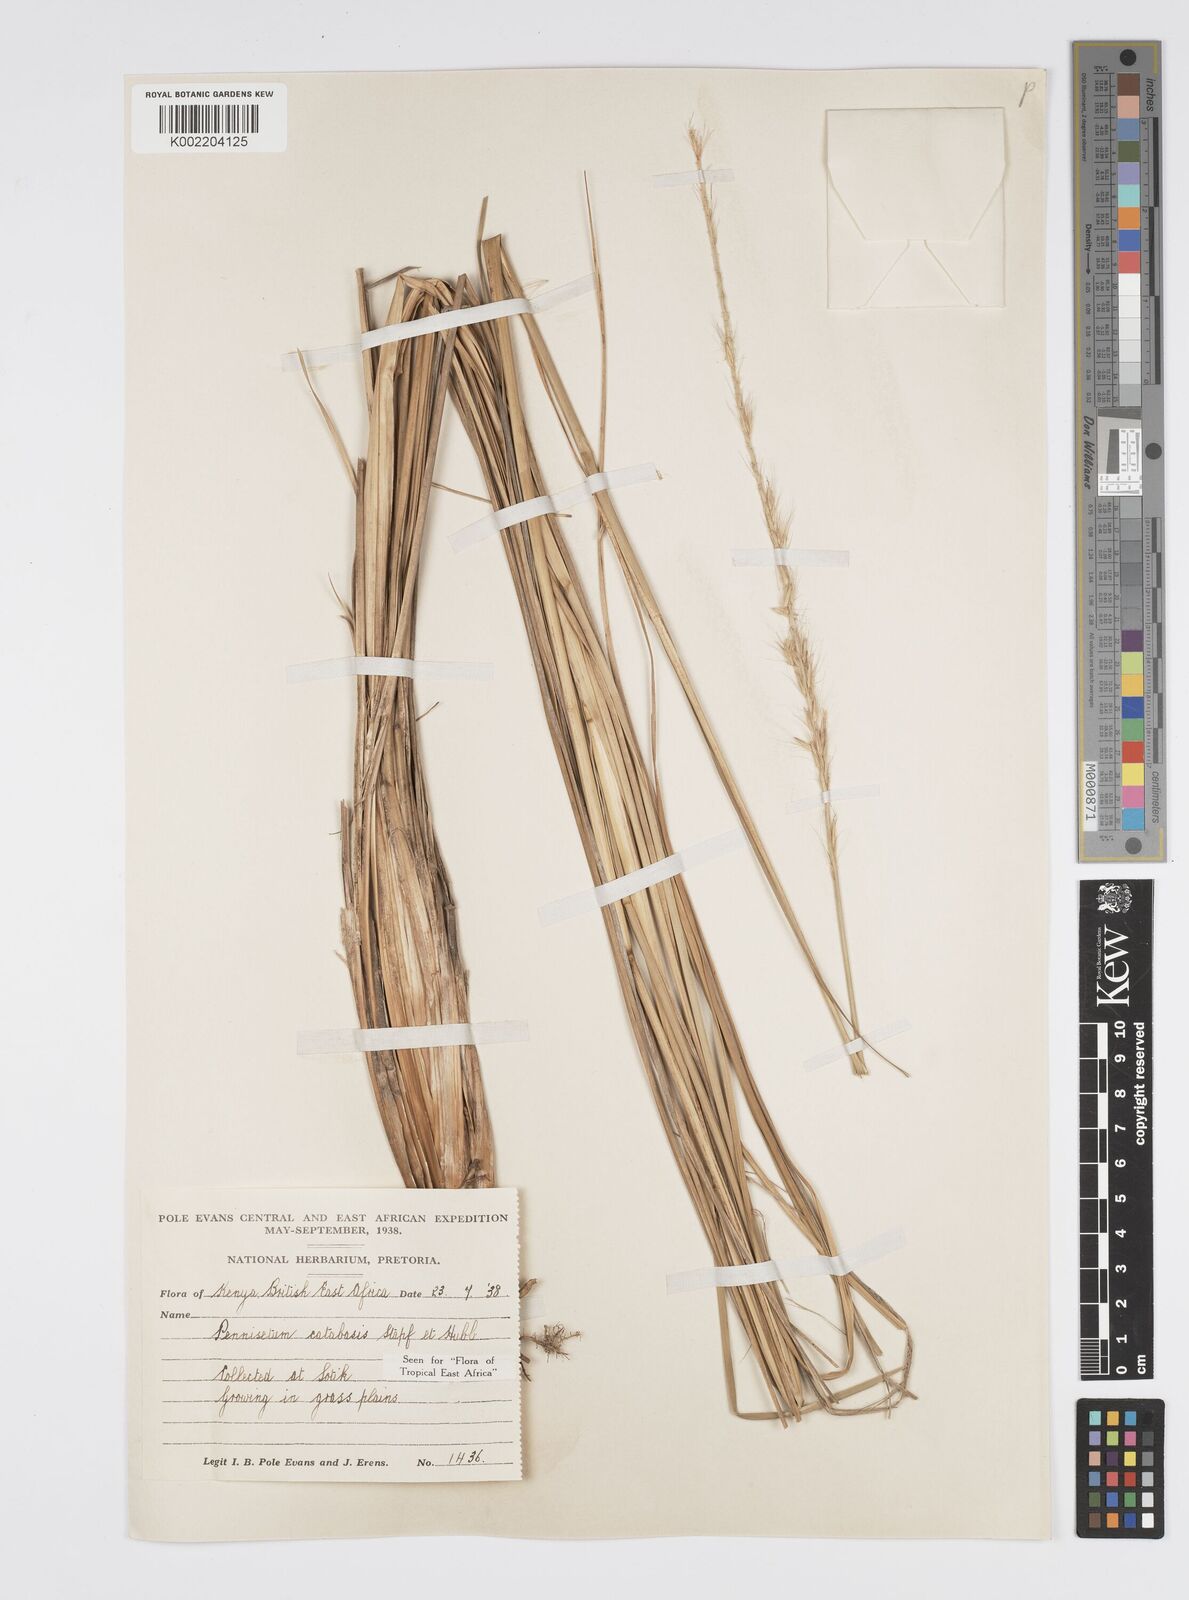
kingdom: Plantae
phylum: Tracheophyta
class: Liliopsida
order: Poales
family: Poaceae
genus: Cenchrus
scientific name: Cenchrus hohenackeri
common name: Moya grass
